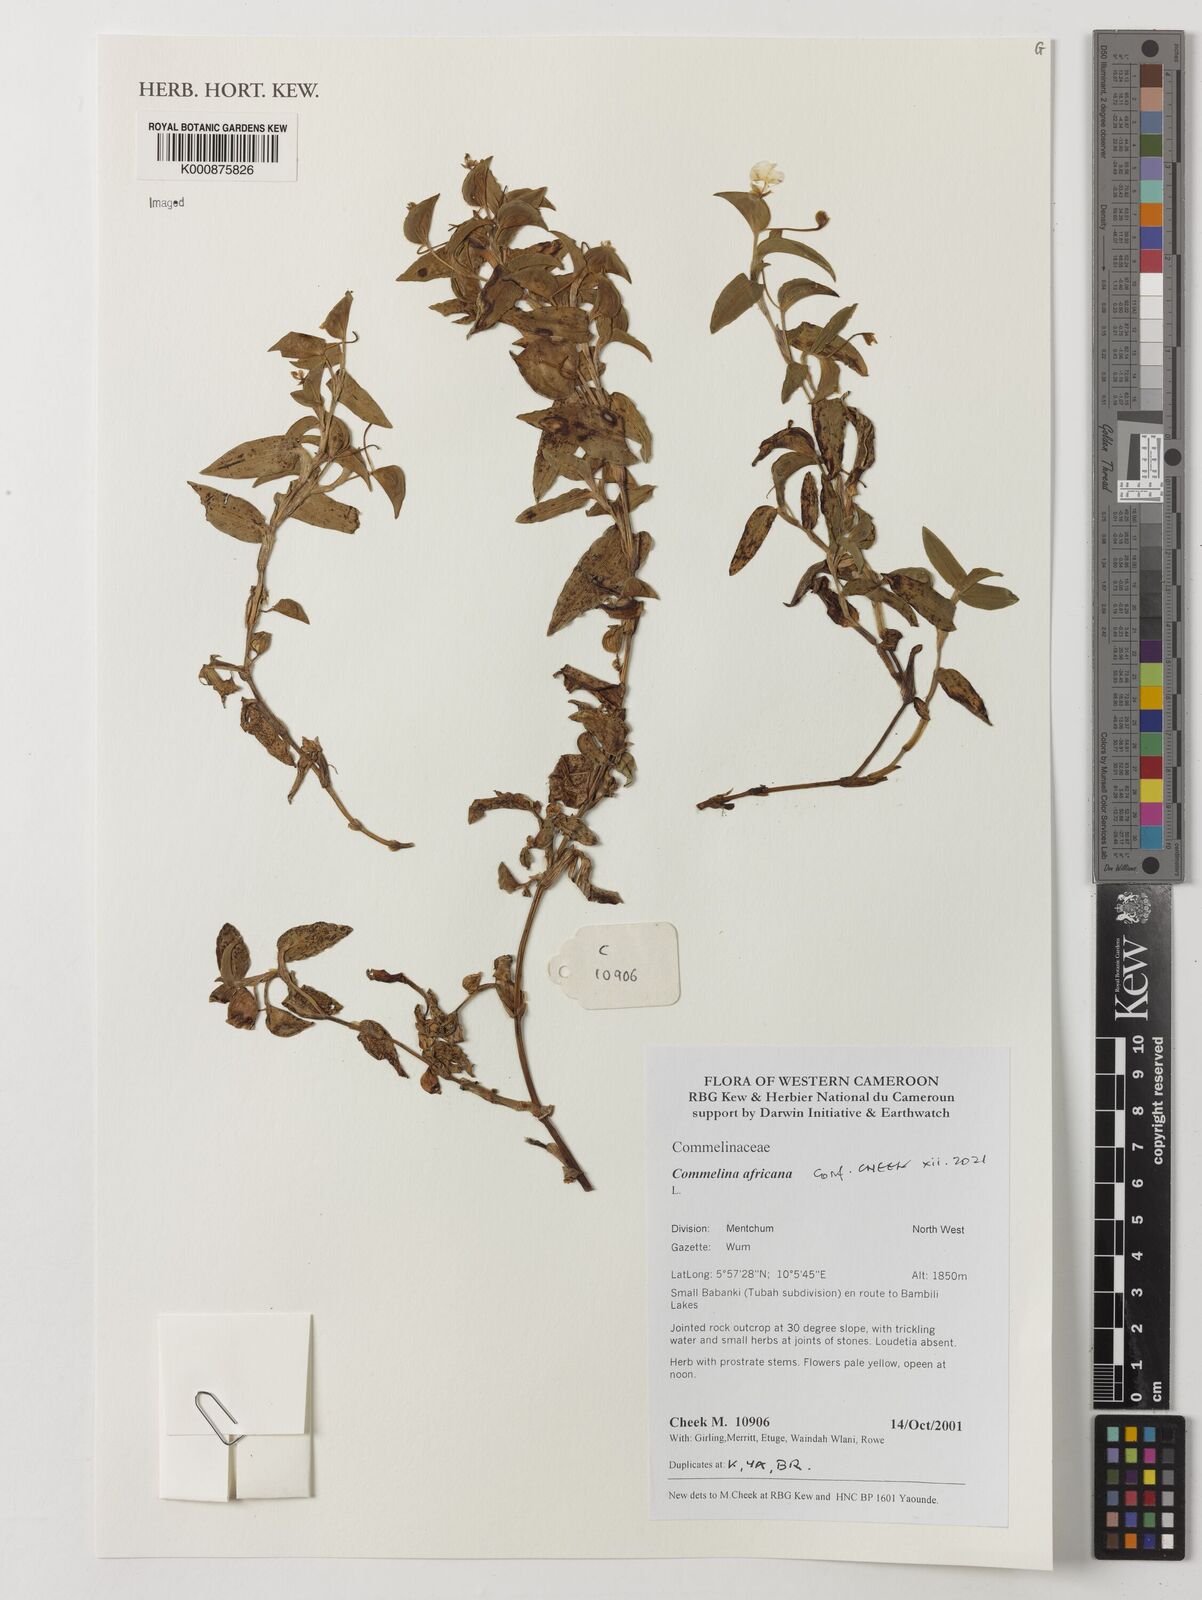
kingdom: Plantae
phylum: Tracheophyta
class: Liliopsida
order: Commelinales
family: Commelinaceae
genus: Commelina
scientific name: Commelina africana
